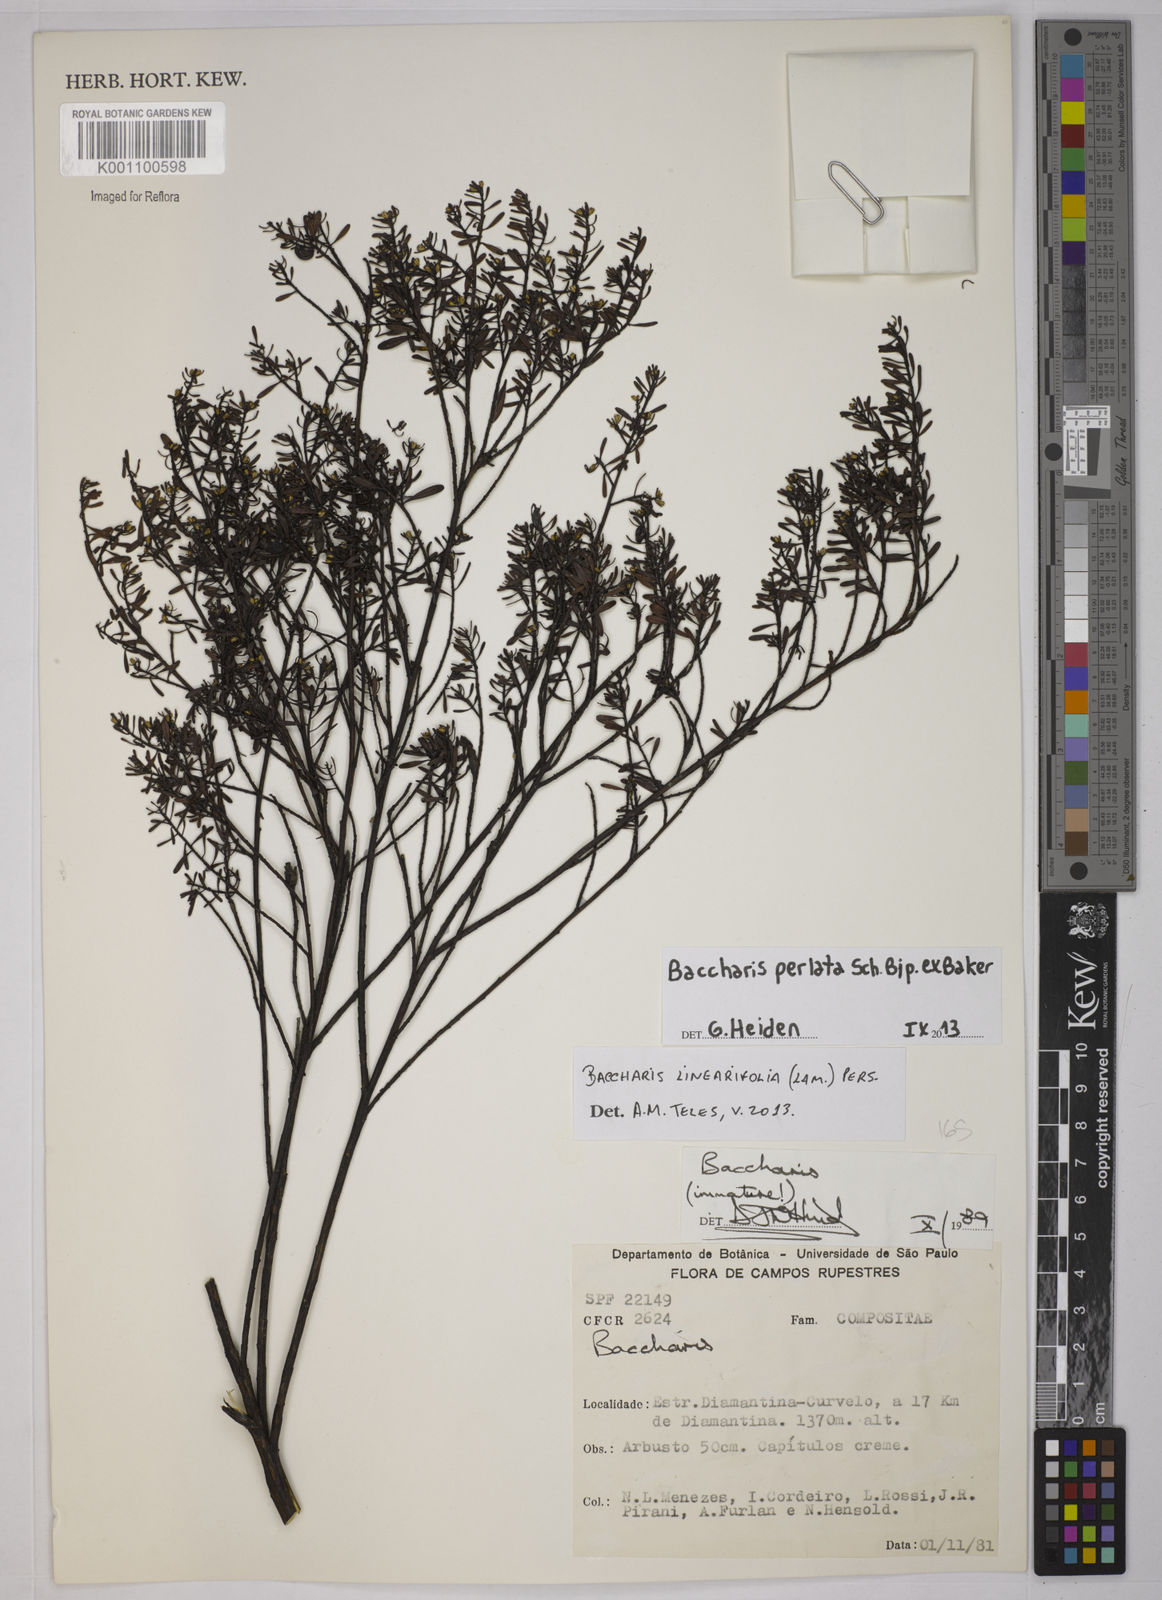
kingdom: Plantae
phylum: Tracheophyta
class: Magnoliopsida
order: Asterales
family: Asteraceae
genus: Baccharis
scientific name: Baccharis xiphophylla
